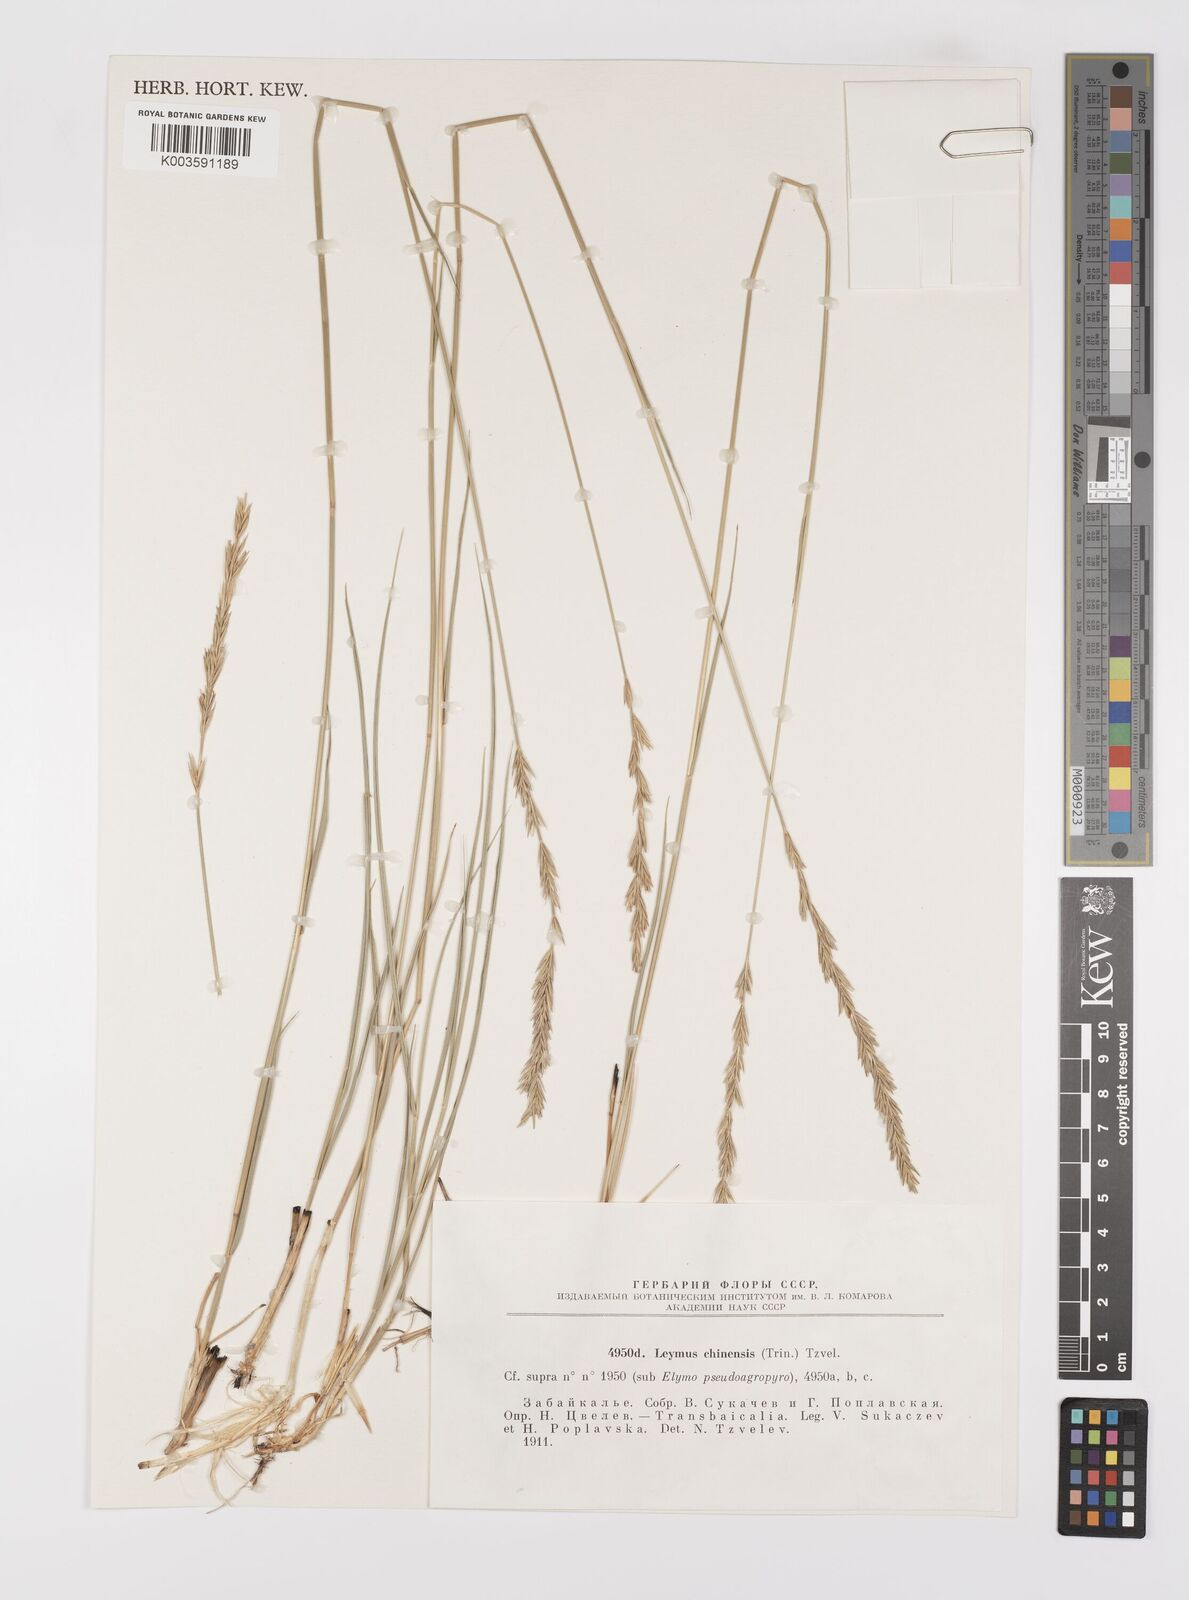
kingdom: Plantae
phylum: Tracheophyta
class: Liliopsida
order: Poales
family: Poaceae
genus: Leymus
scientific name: Leymus chinensis
